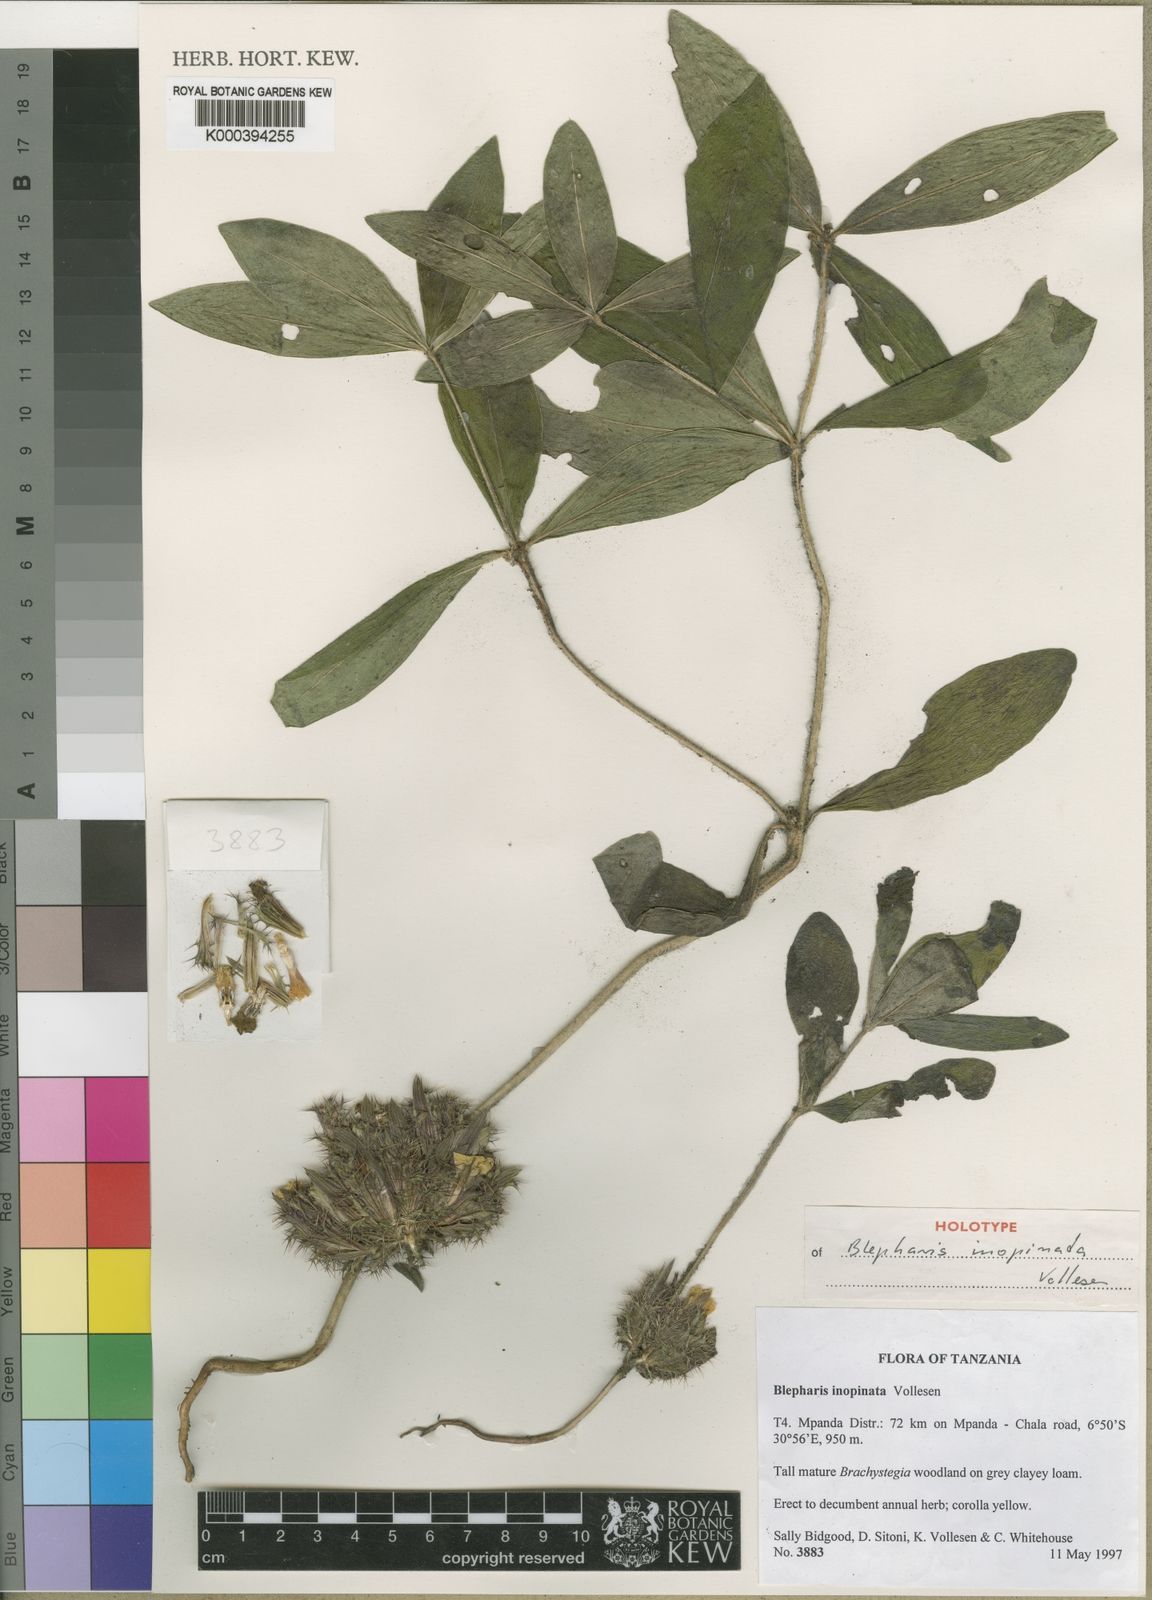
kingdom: Plantae
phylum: Tracheophyta
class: Magnoliopsida
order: Lamiales
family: Acanthaceae
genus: Blepharis
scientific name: Blepharis inopinata
